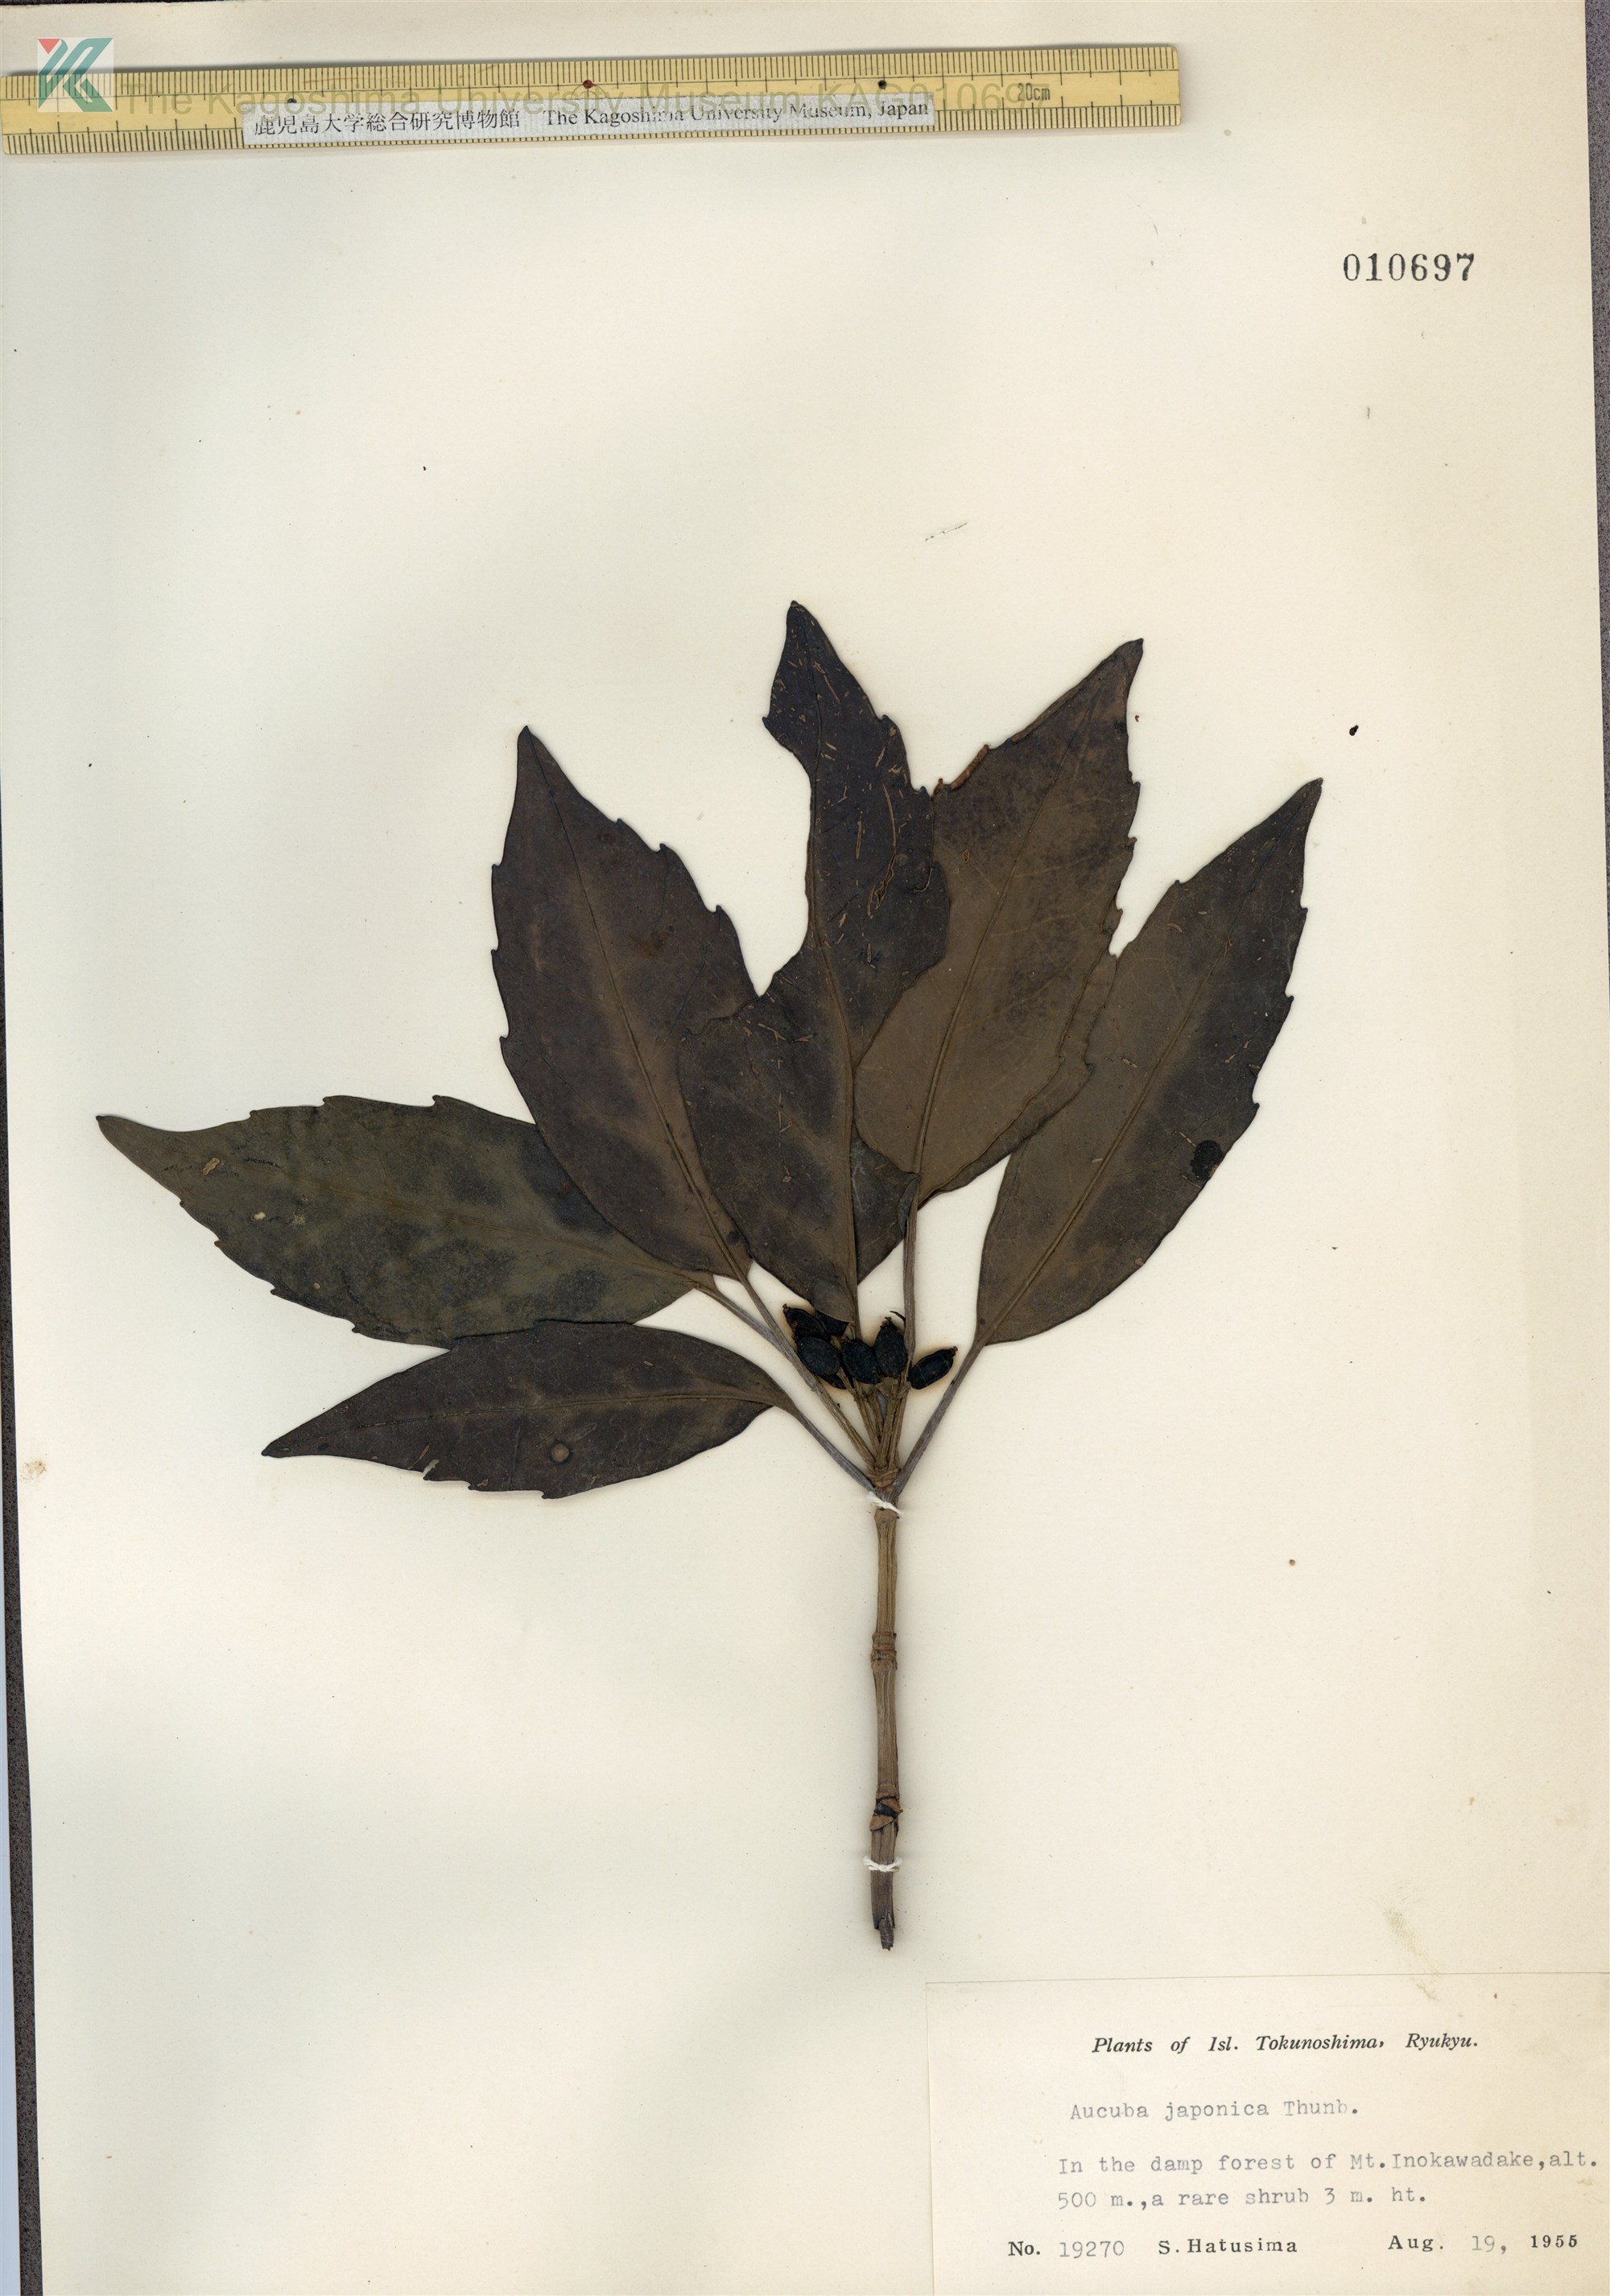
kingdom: Plantae
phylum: Tracheophyta
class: Magnoliopsida
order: Garryales
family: Garryaceae
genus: Aucuba
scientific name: Aucuba japonica
